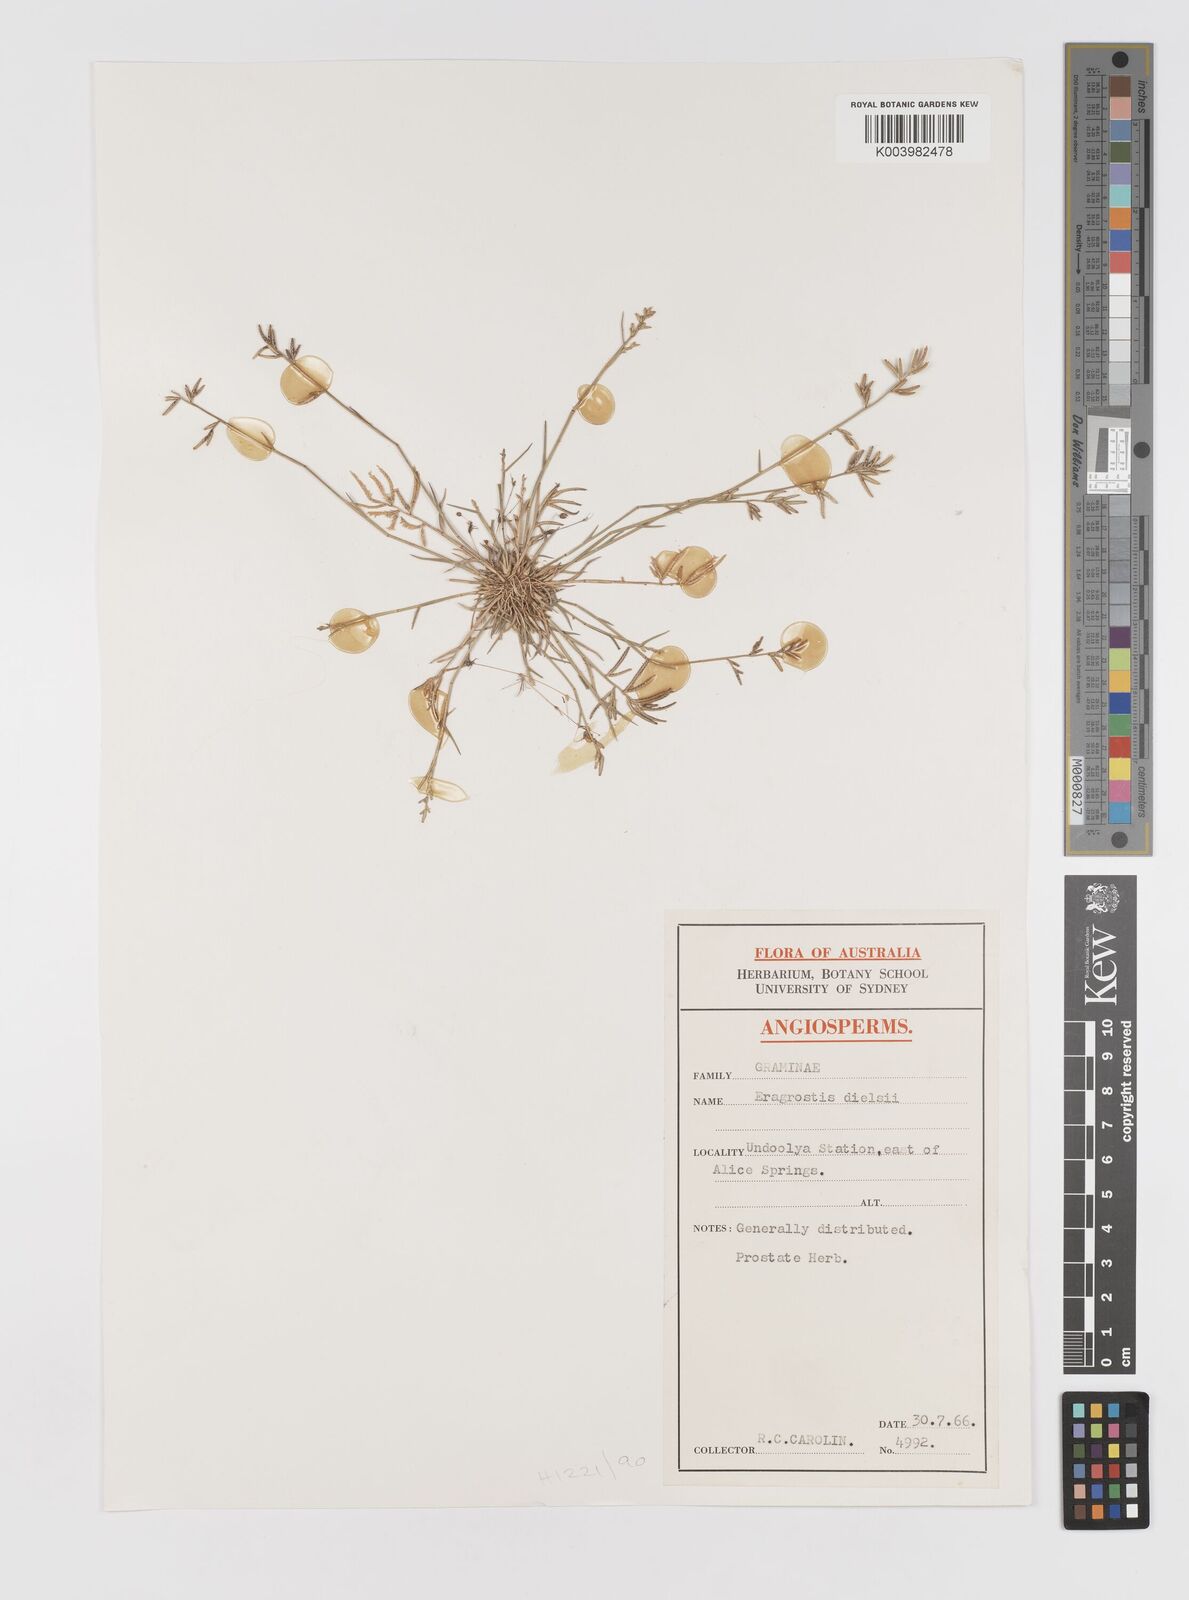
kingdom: Plantae
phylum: Tracheophyta
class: Liliopsida
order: Poales
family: Poaceae
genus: Eragrostis
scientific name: Eragrostis dielsii
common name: Lovegrass
